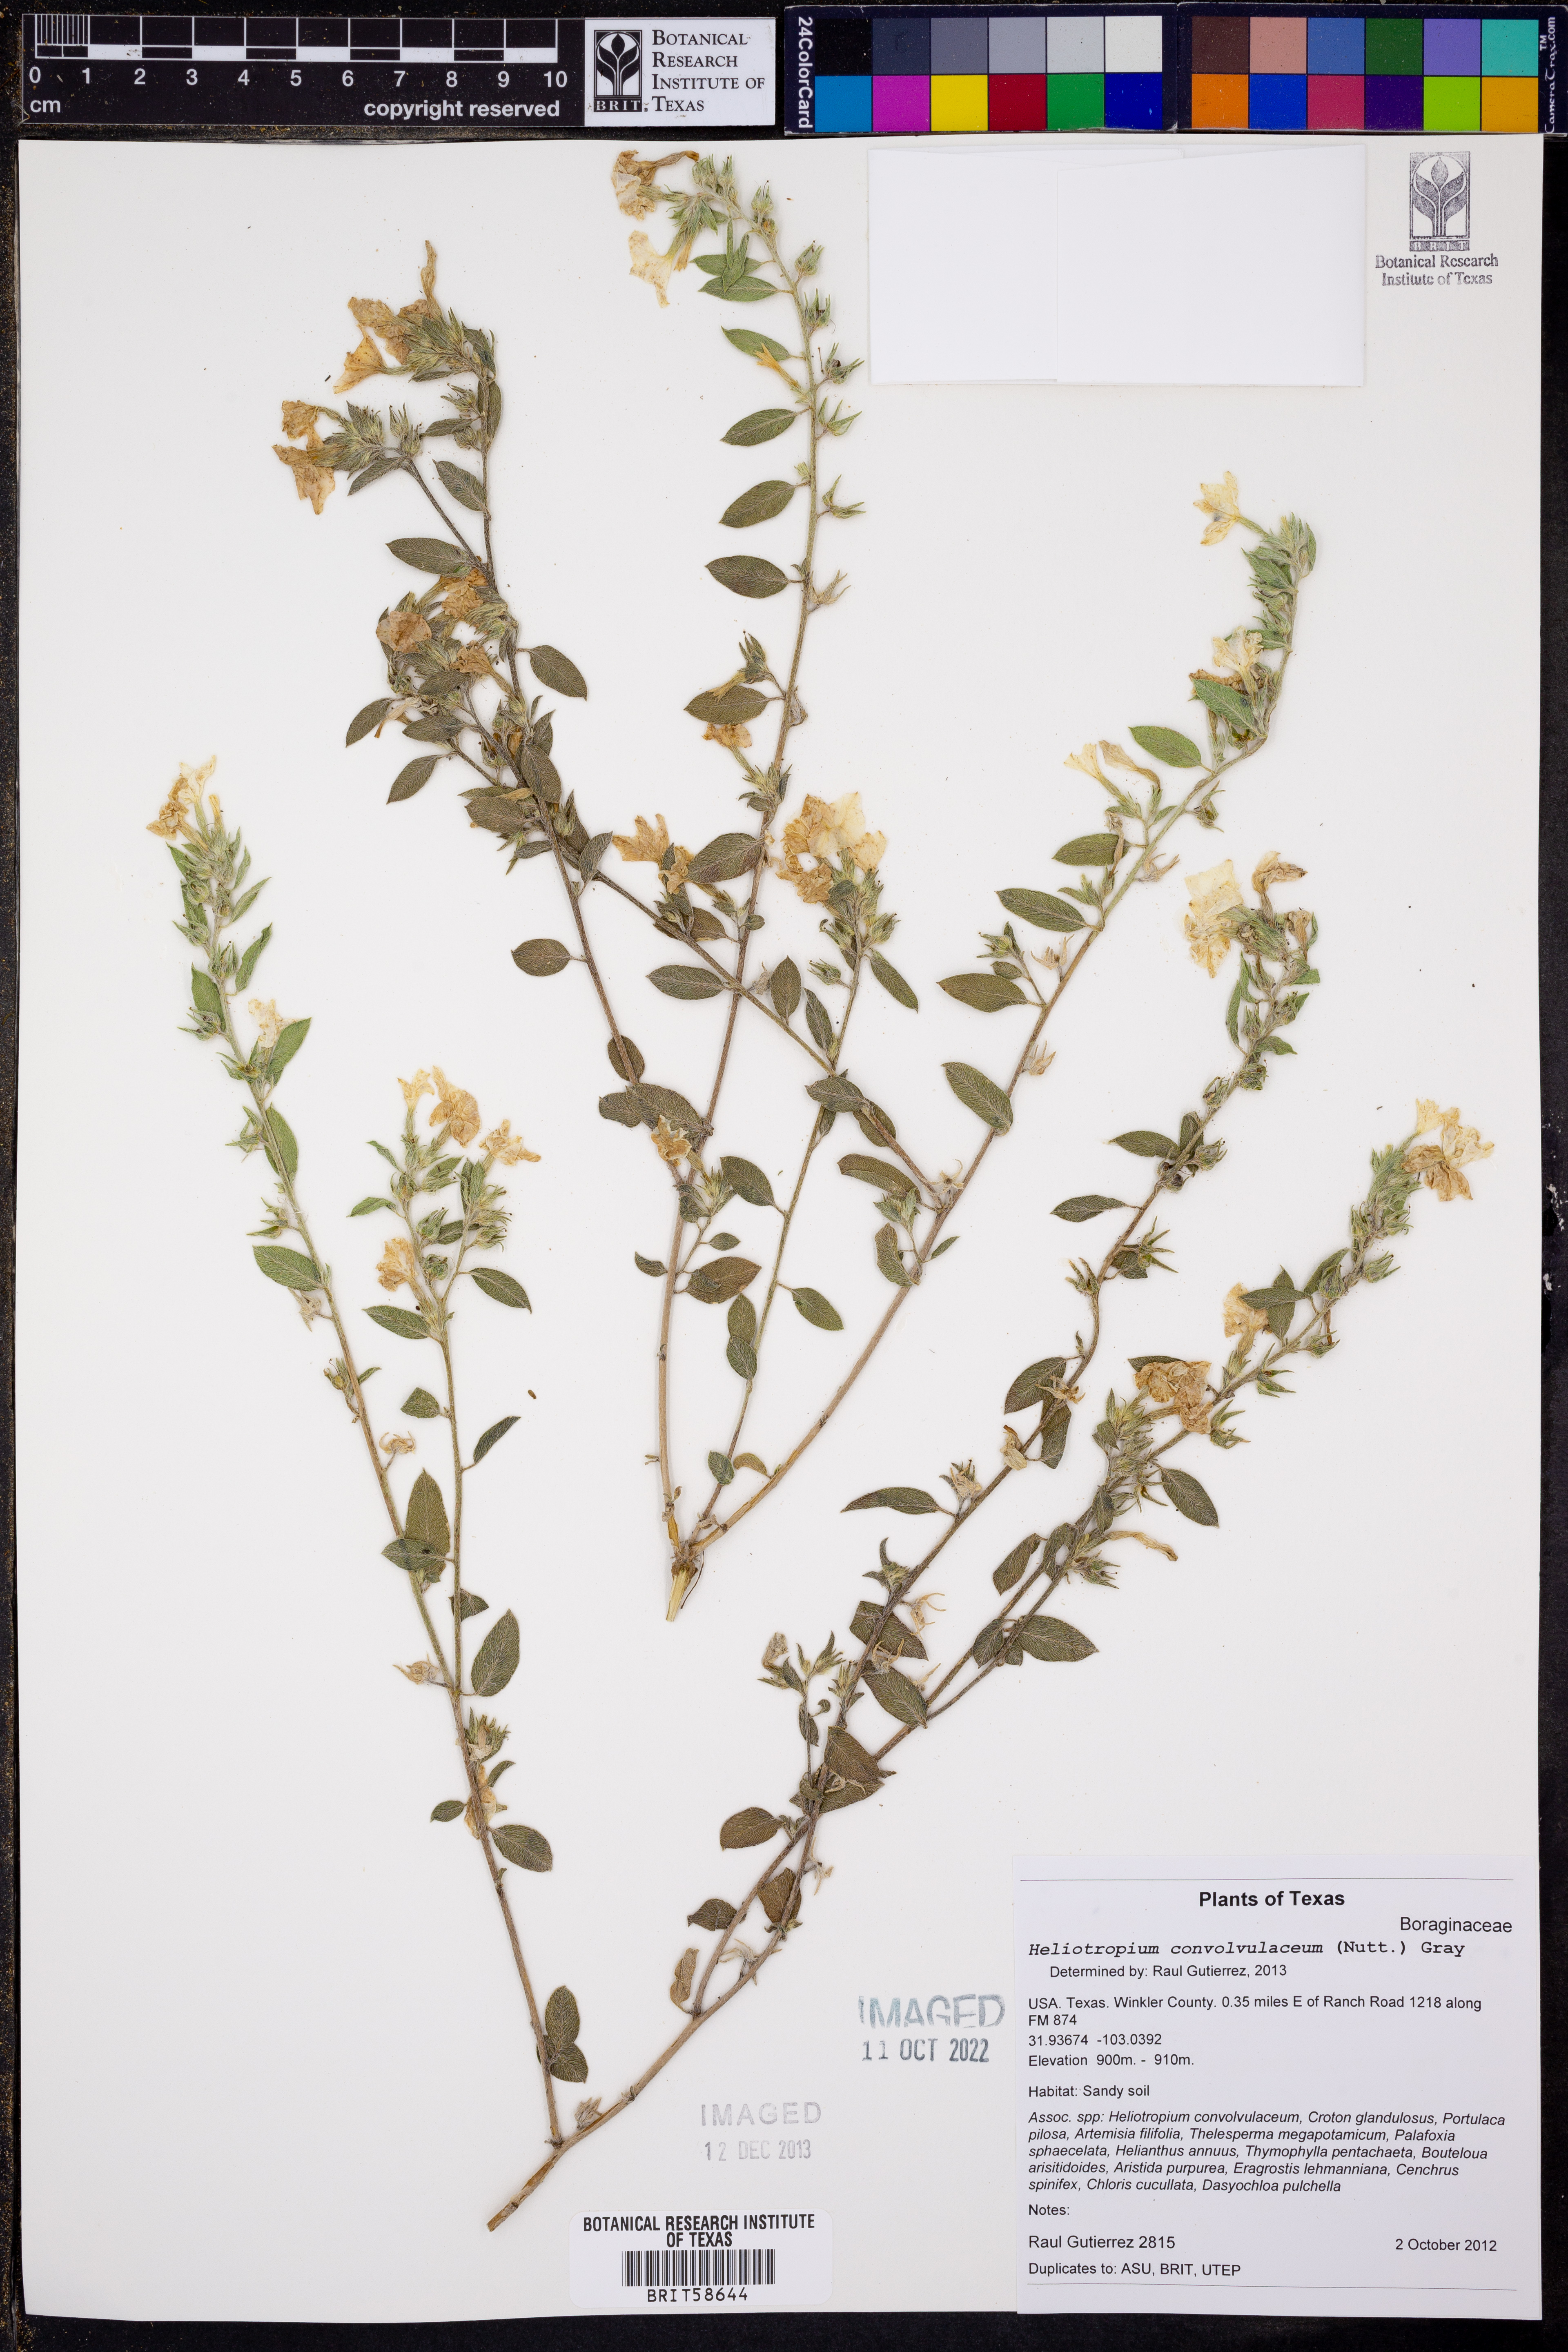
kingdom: Plantae
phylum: Tracheophyta
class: Magnoliopsida
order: Boraginales
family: Heliotropiaceae
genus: Euploca
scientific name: Euploca convolvulacea
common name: Bindweed heliotrope
